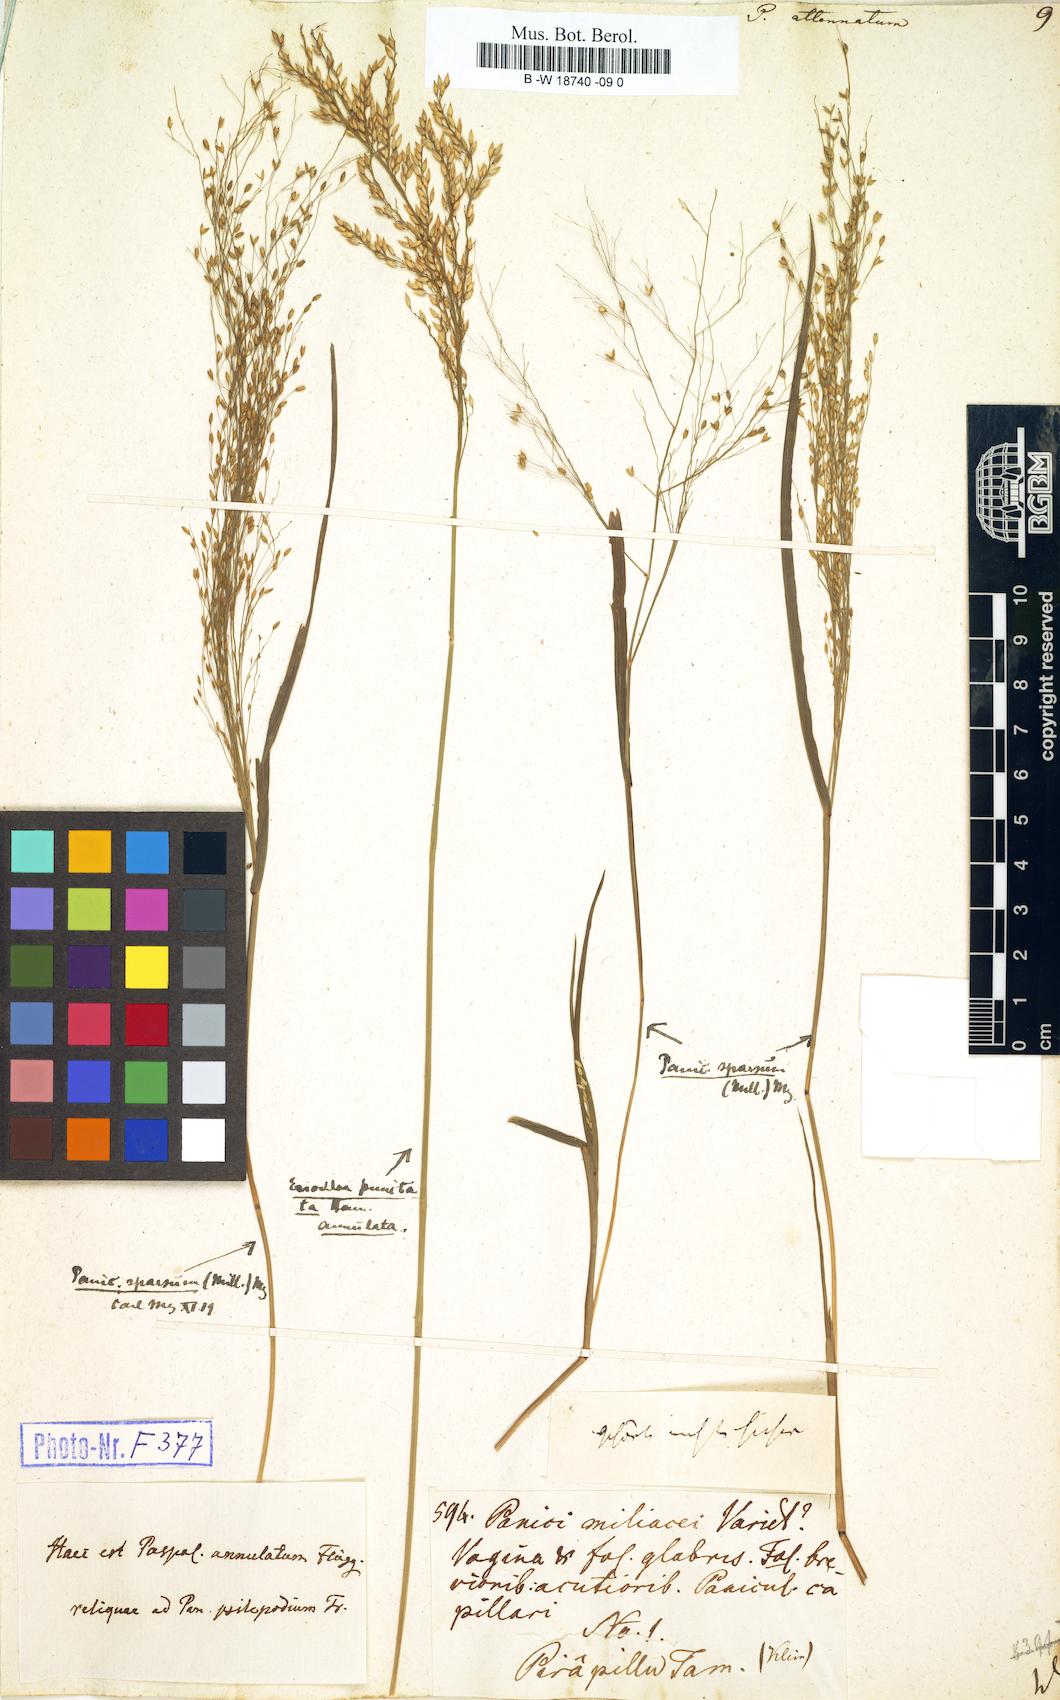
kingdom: Plantae
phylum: Tracheophyta
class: Liliopsida
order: Poales
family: Poaceae
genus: Panicum
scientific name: Panicum sumatrense
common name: Little millet
